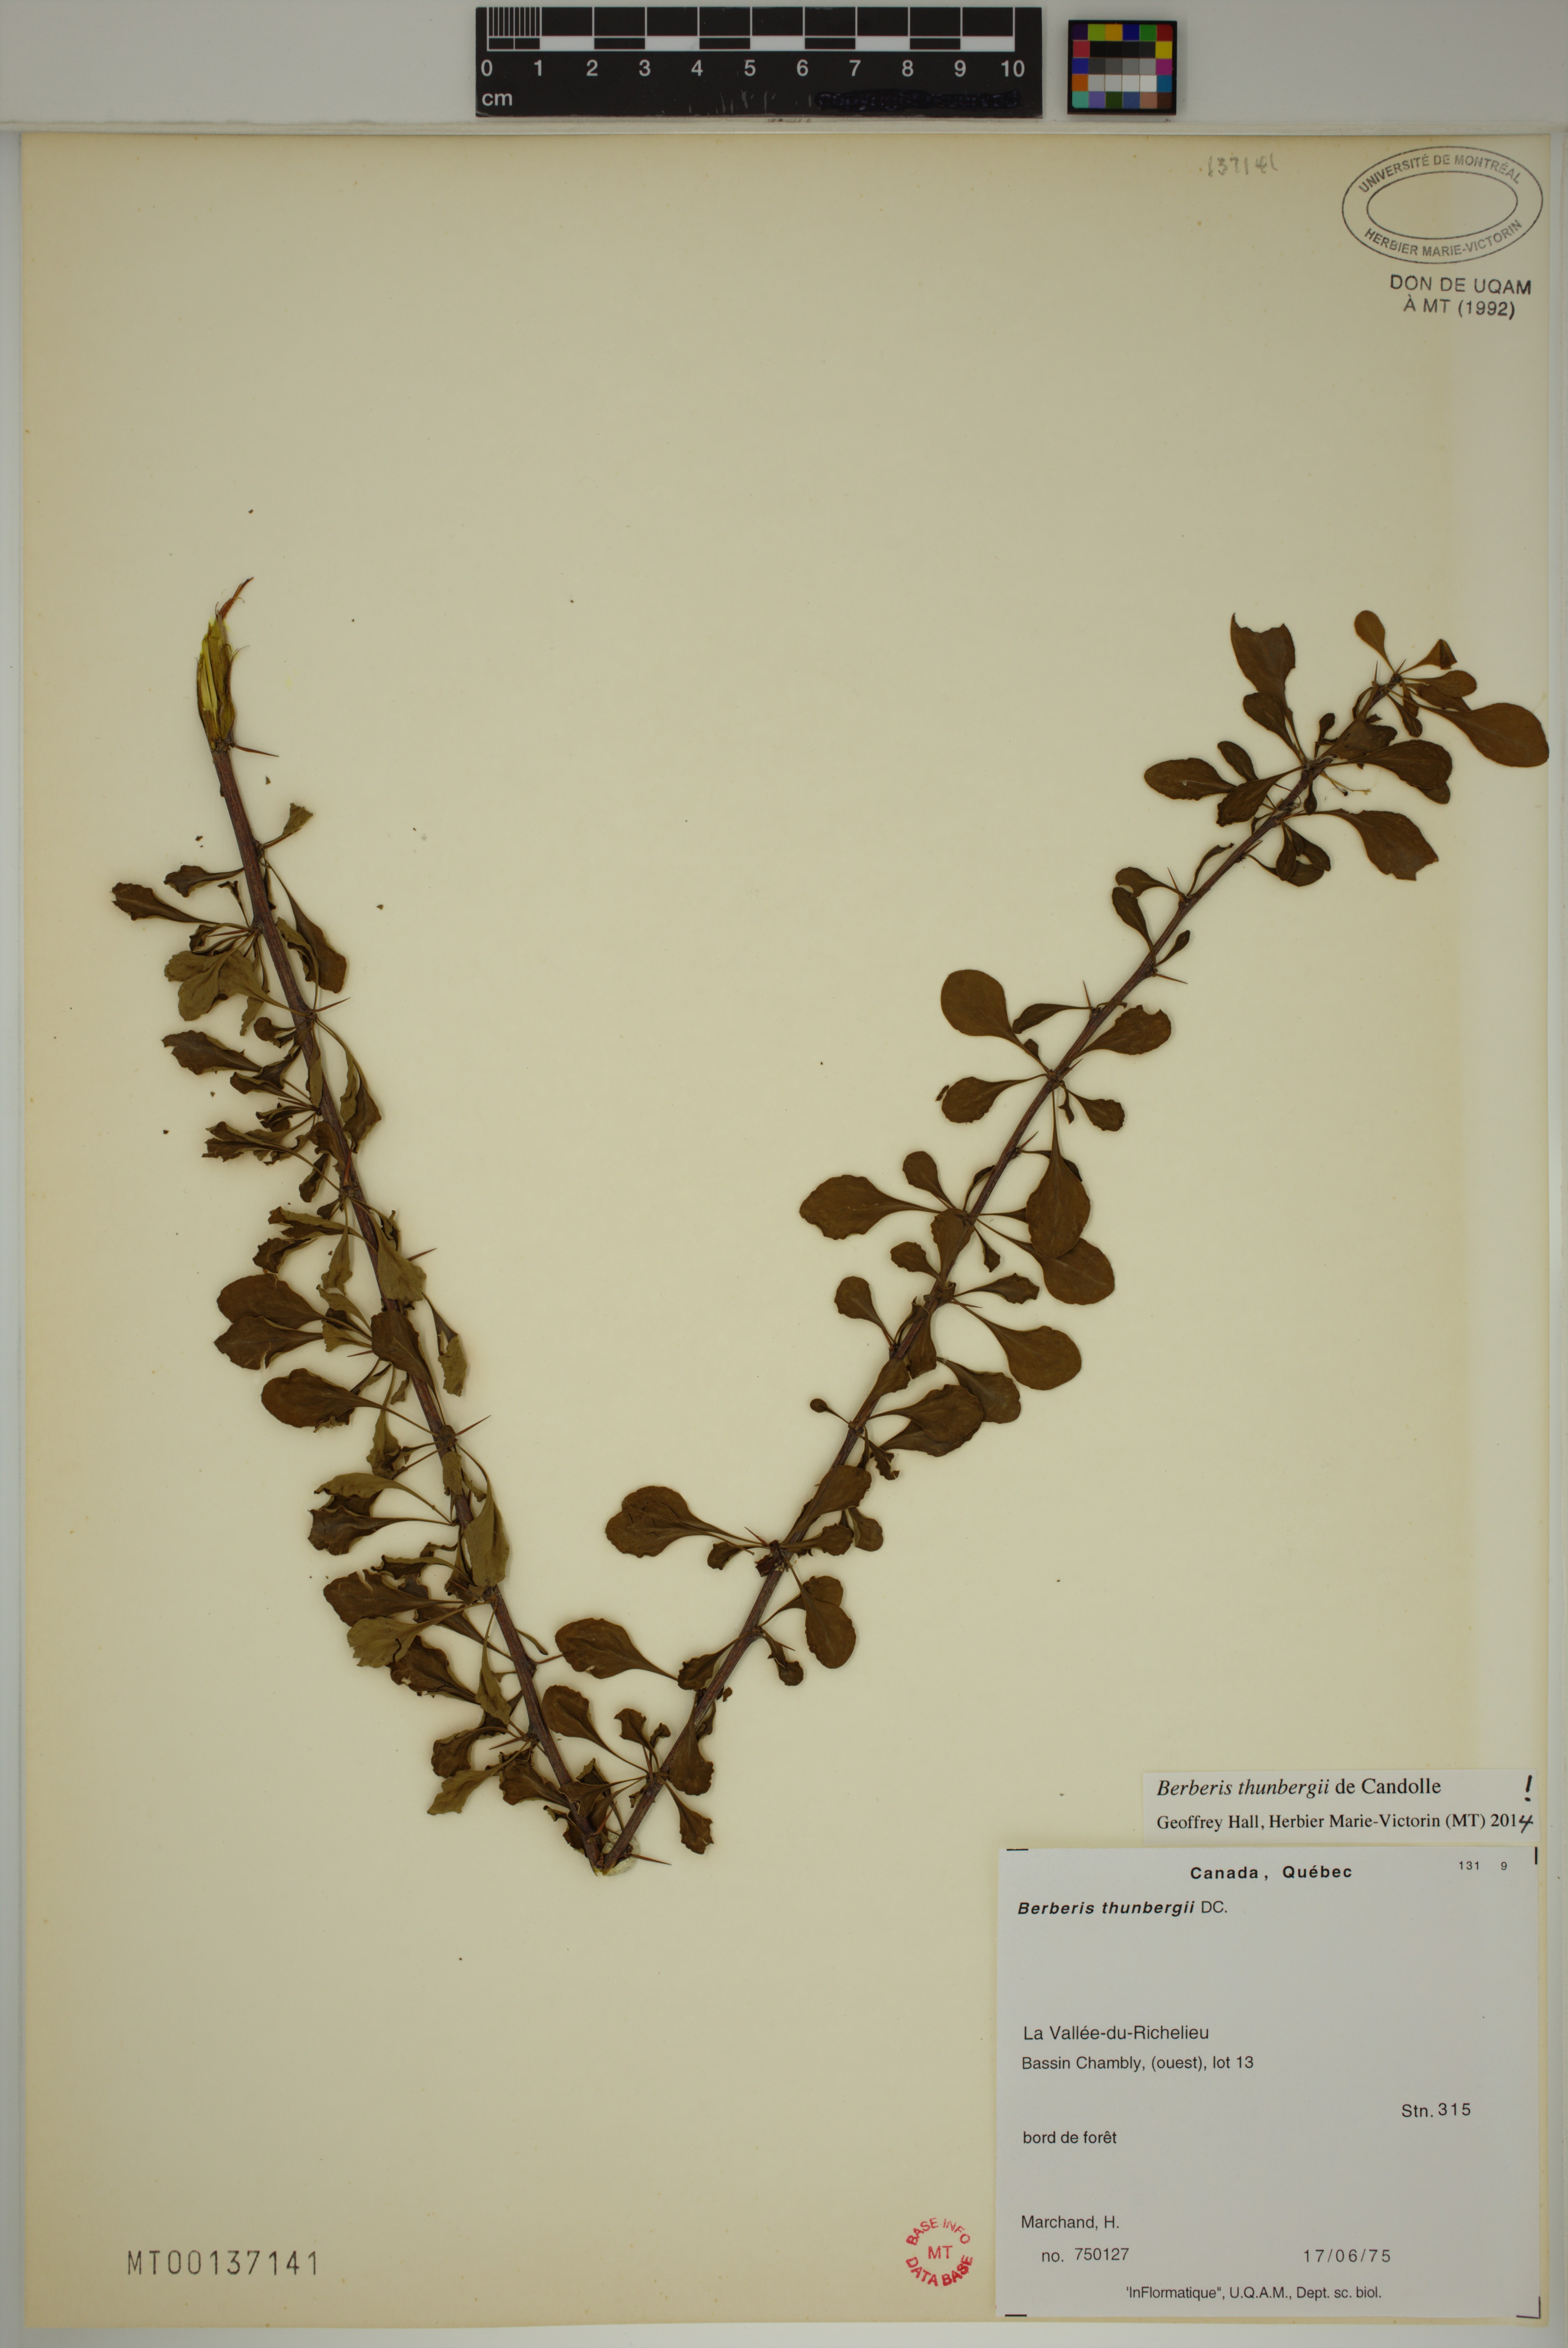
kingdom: Plantae
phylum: Tracheophyta
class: Magnoliopsida
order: Ranunculales
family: Berberidaceae
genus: Berberis
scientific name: Berberis thunbergii
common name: Japanese barberry
